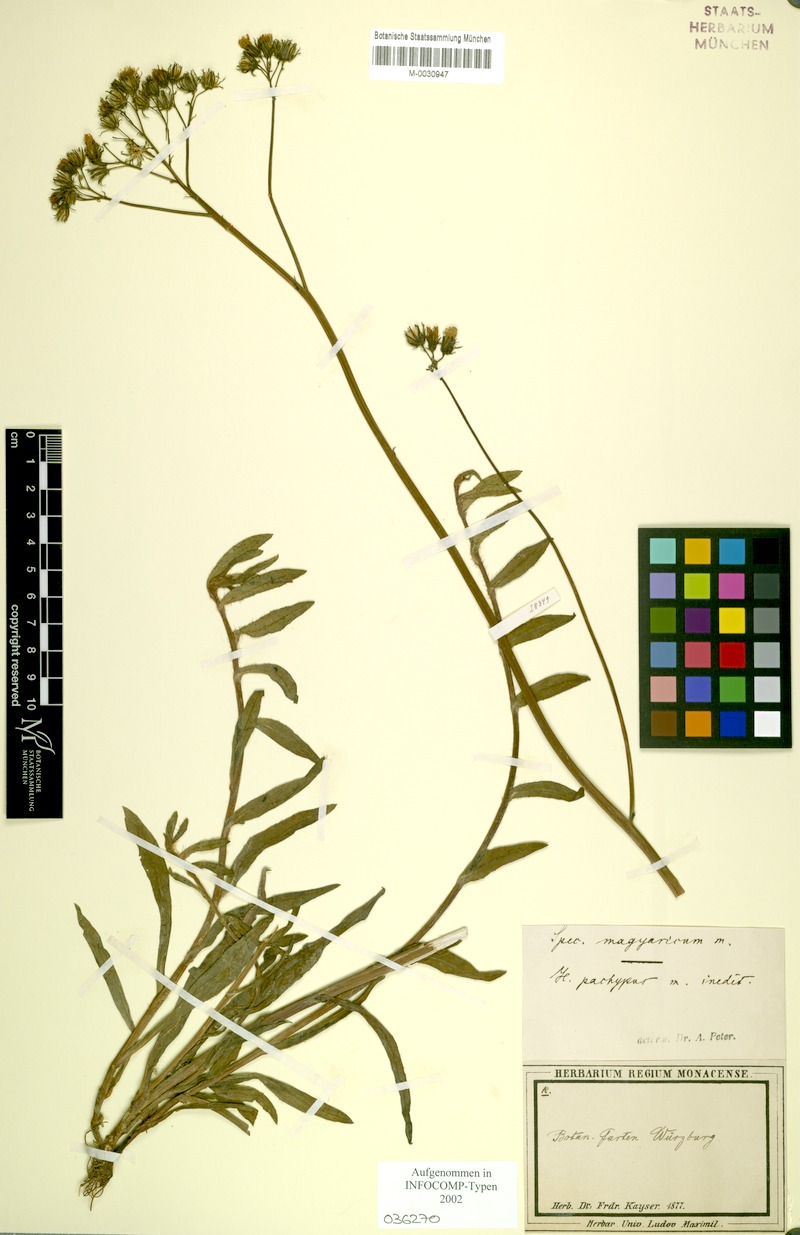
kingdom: Plantae
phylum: Tracheophyta
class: Magnoliopsida
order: Asterales
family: Asteraceae
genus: Pilosella
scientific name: Pilosella bauhini
